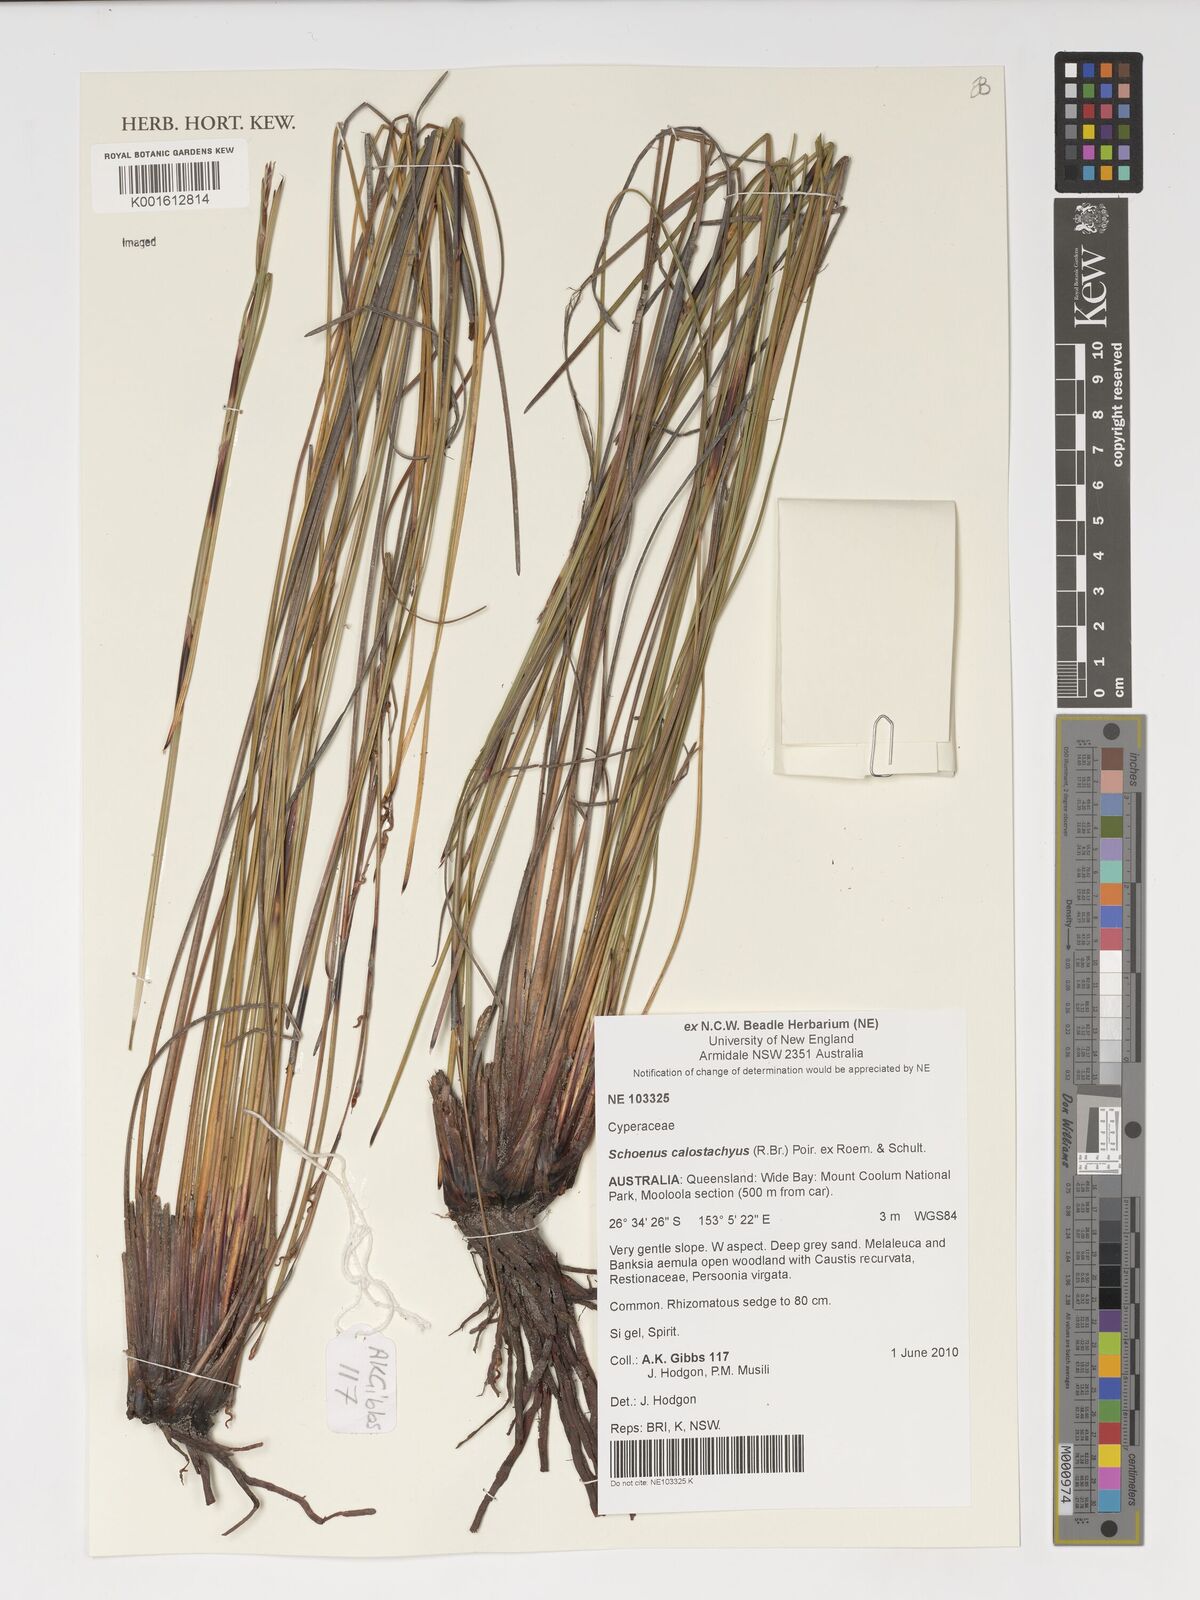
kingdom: Plantae
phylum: Tracheophyta
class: Liliopsida
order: Poales
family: Cyperaceae
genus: Schoenus
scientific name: Schoenus calostachyus
